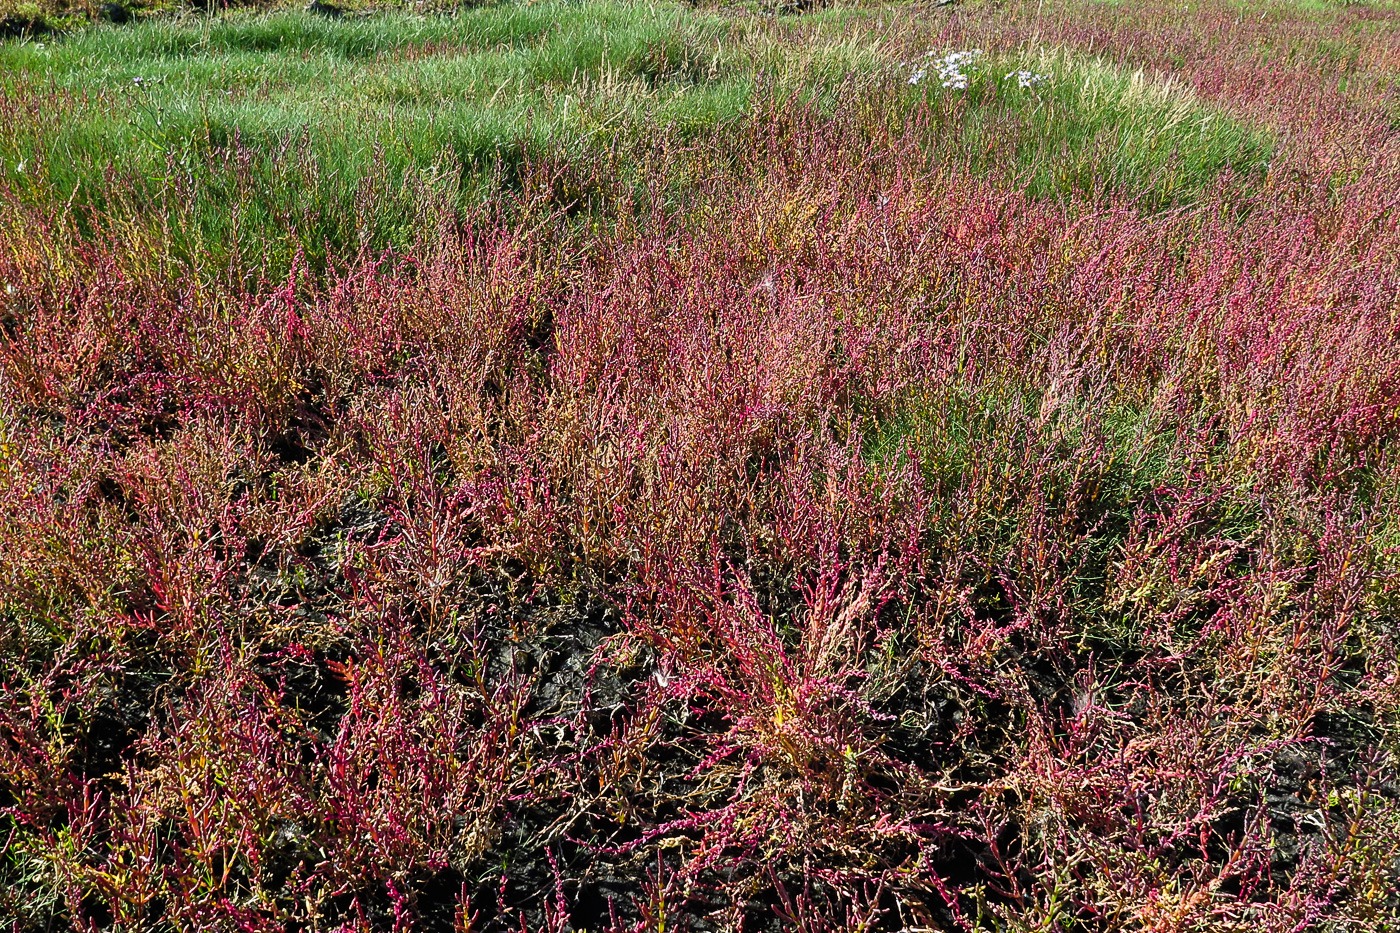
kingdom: Plantae
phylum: Tracheophyta
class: Magnoliopsida
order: Caryophyllales
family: Amaranthaceae
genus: Salicornia
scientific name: Salicornia europaea
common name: Almindelig salturt
